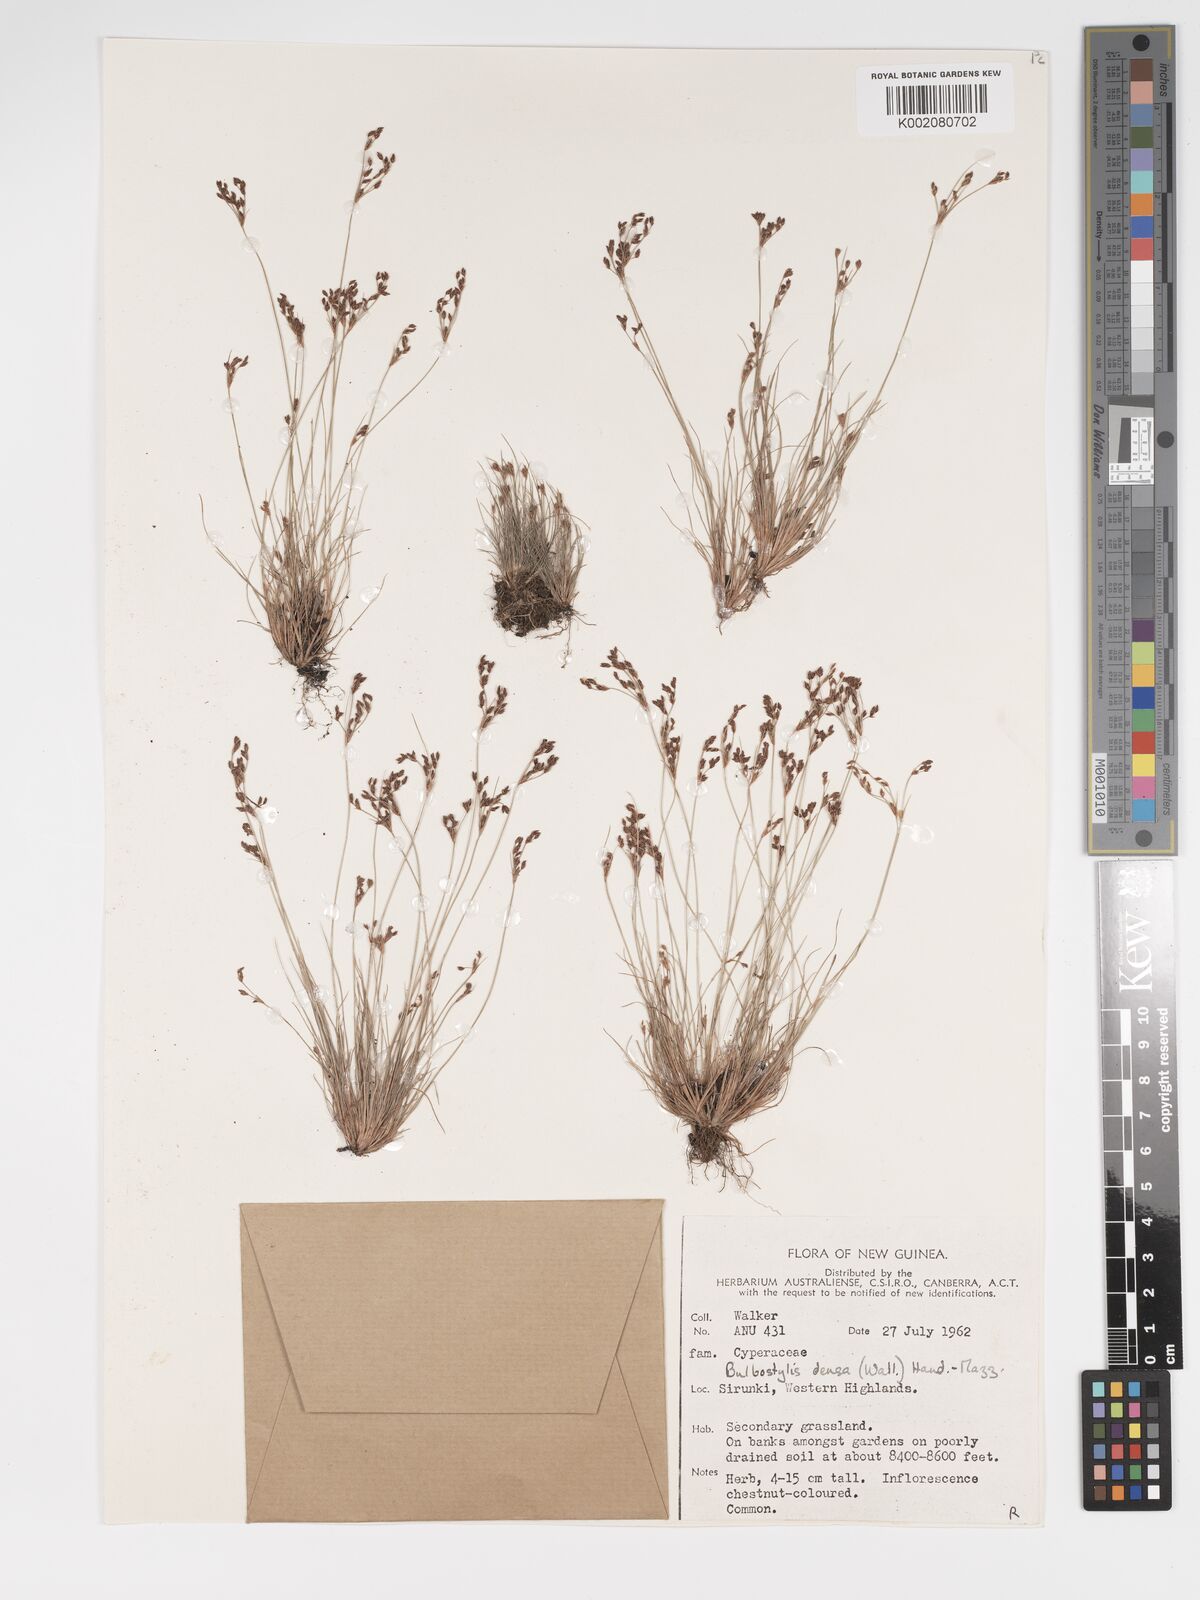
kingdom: Plantae
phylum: Tracheophyta
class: Liliopsida
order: Poales
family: Cyperaceae
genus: Bulbostylis
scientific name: Bulbostylis densa
